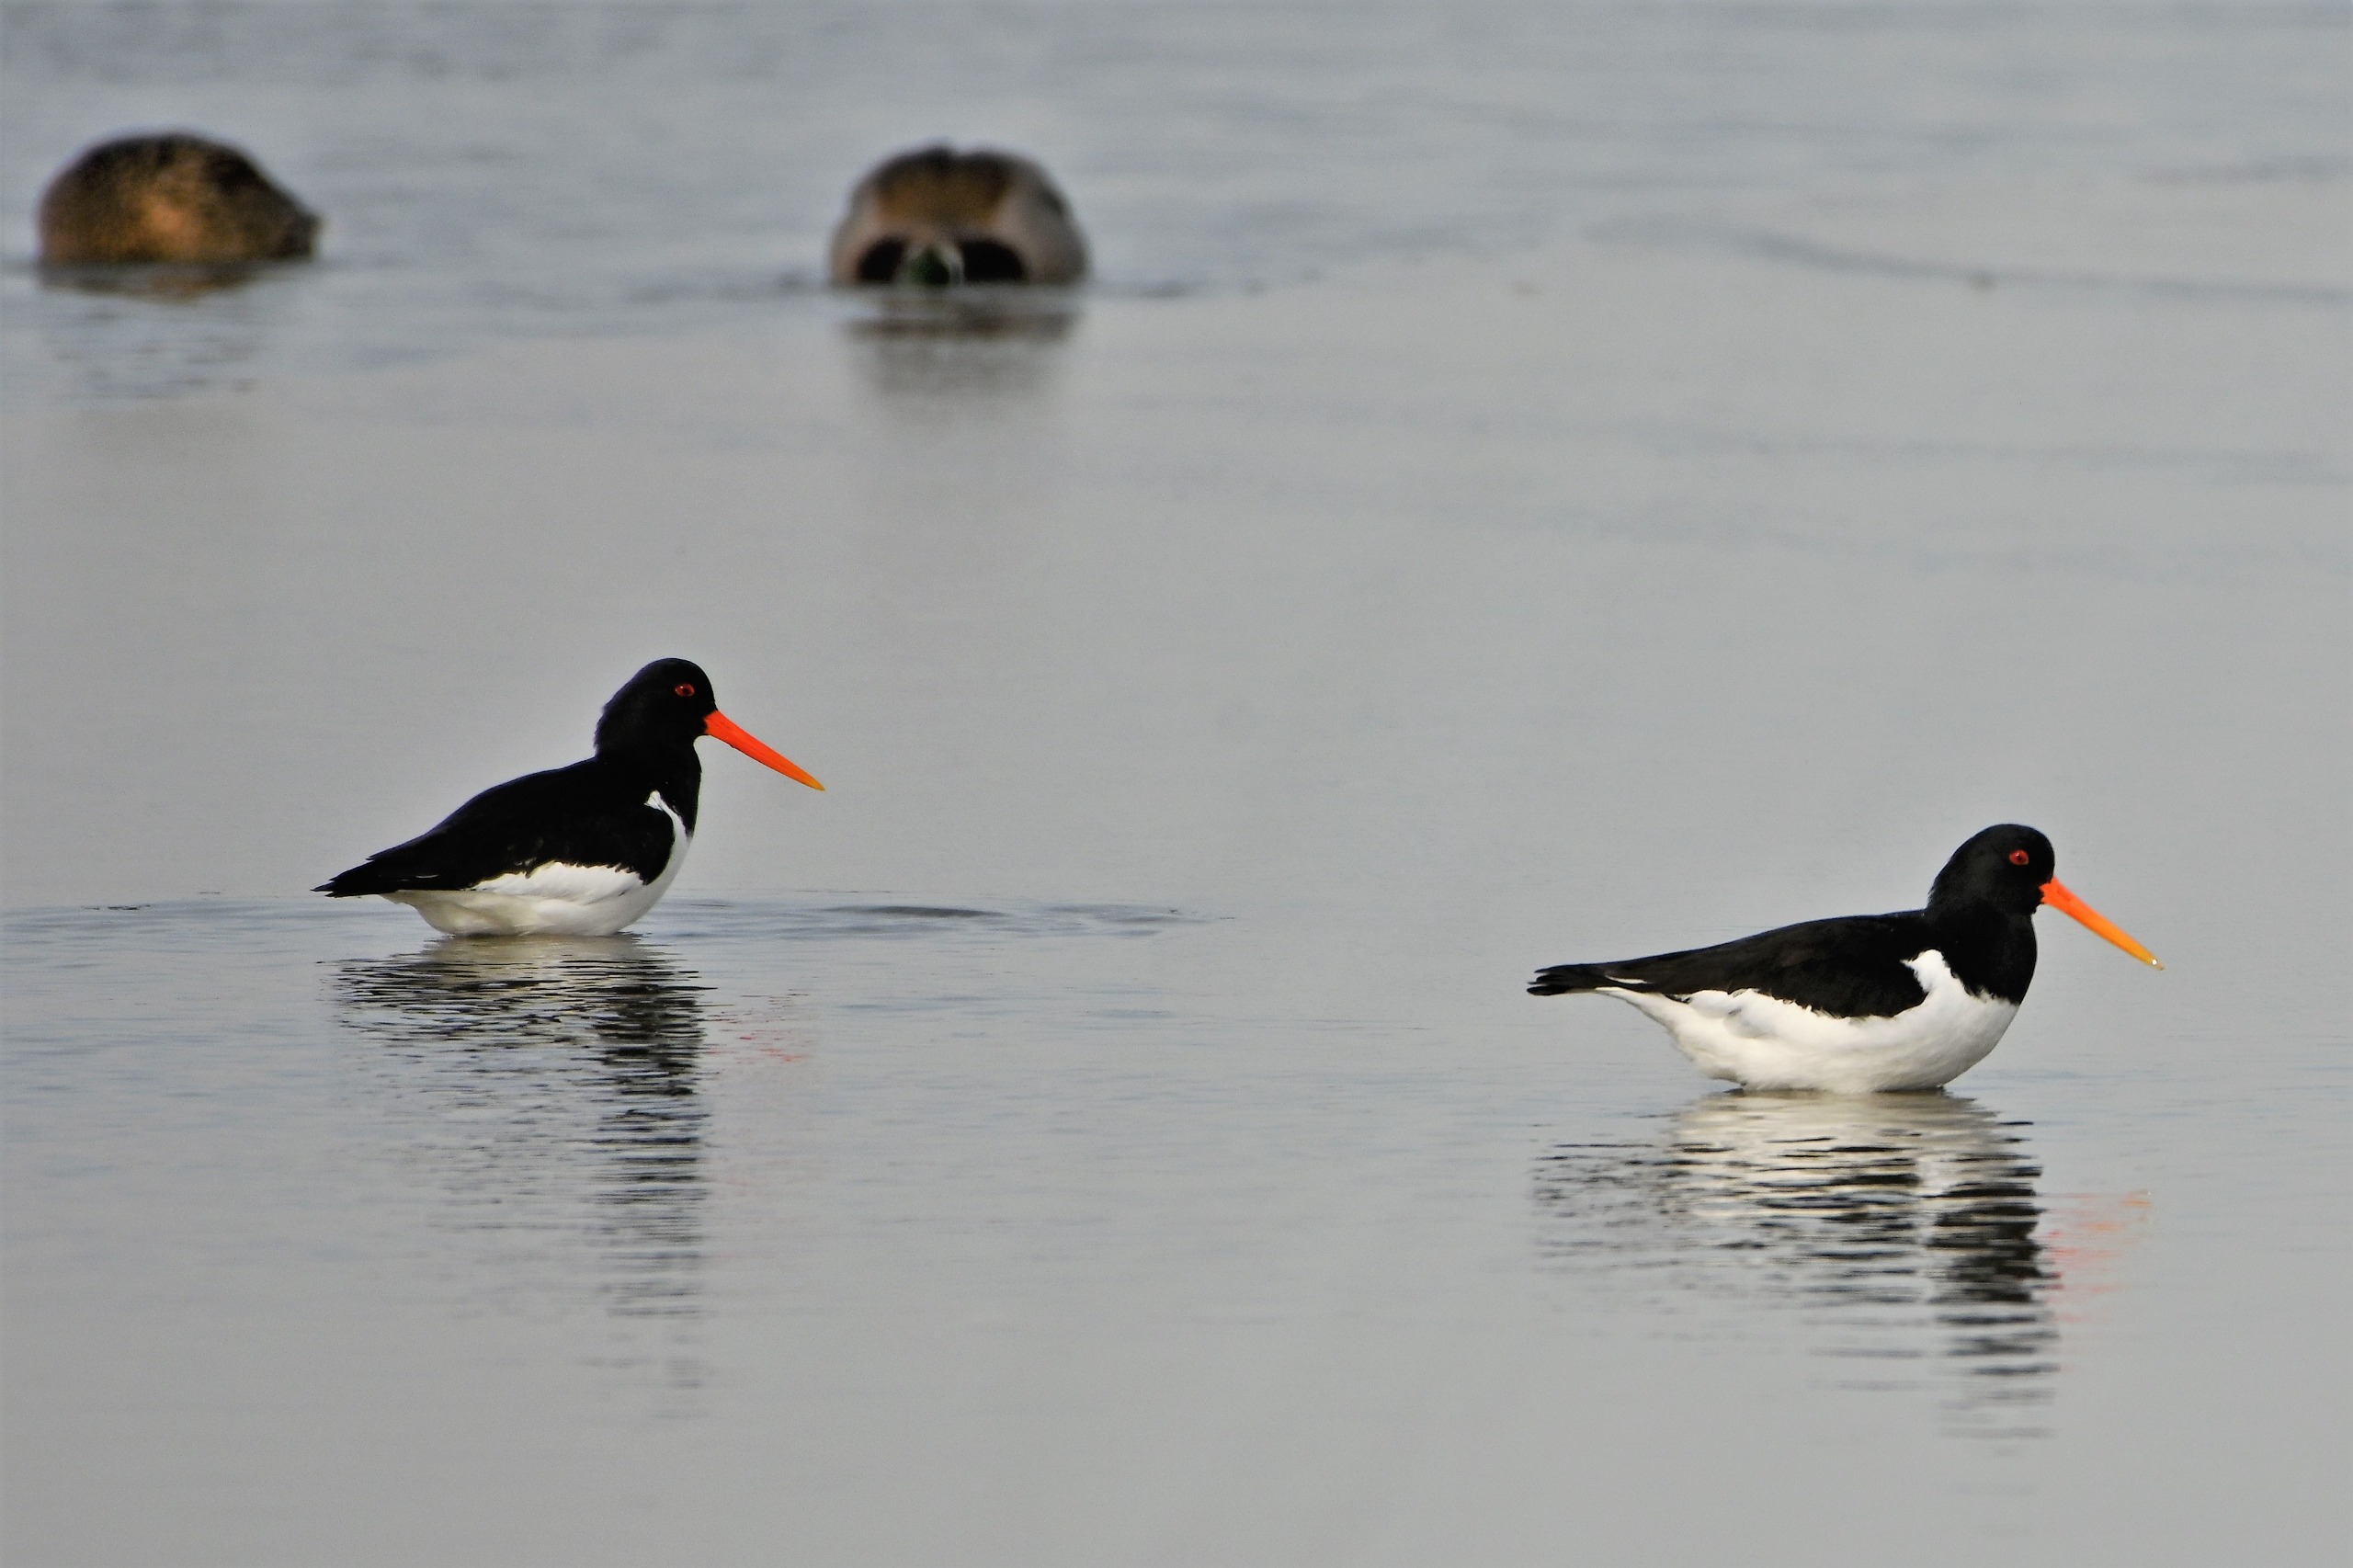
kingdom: Animalia
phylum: Chordata
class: Aves
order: Charadriiformes
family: Haematopodidae
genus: Haematopus
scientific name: Haematopus ostralegus
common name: Strandskade
